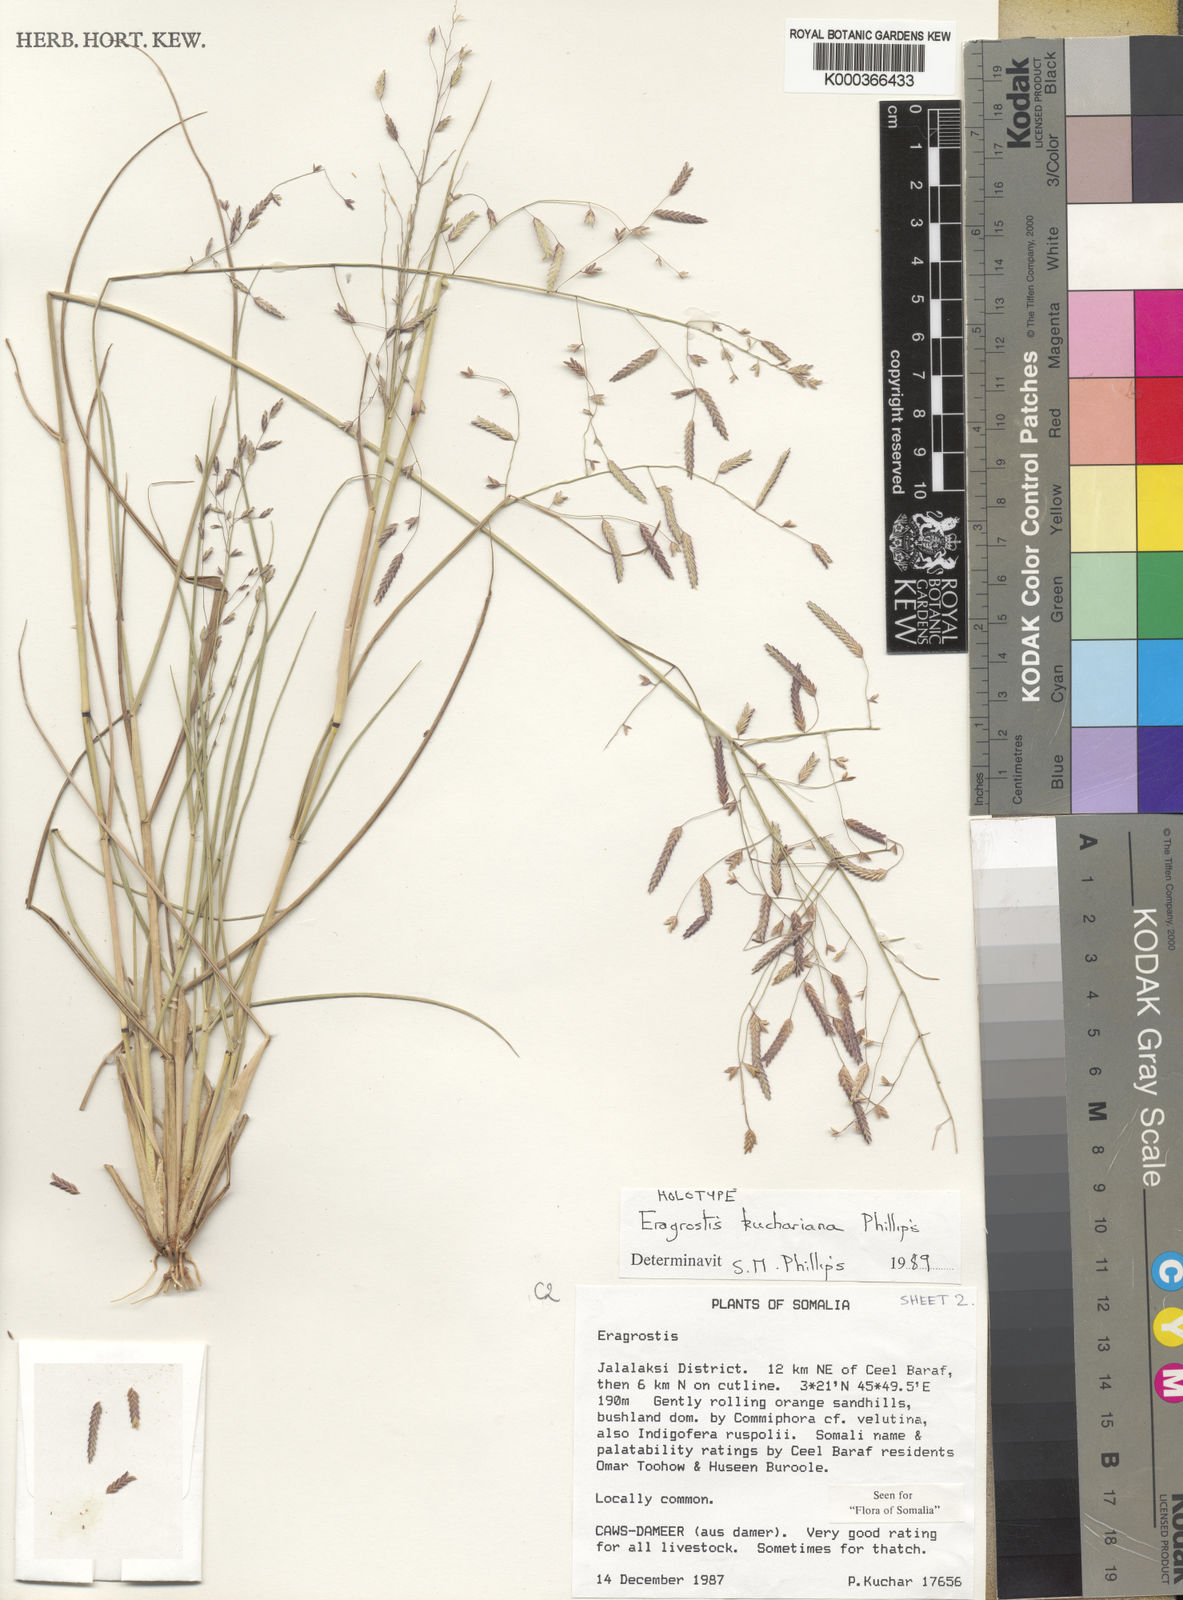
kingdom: Plantae
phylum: Tracheophyta
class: Liliopsida
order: Poales
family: Poaceae
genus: Eragrostis
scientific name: Eragrostis kuchariana
